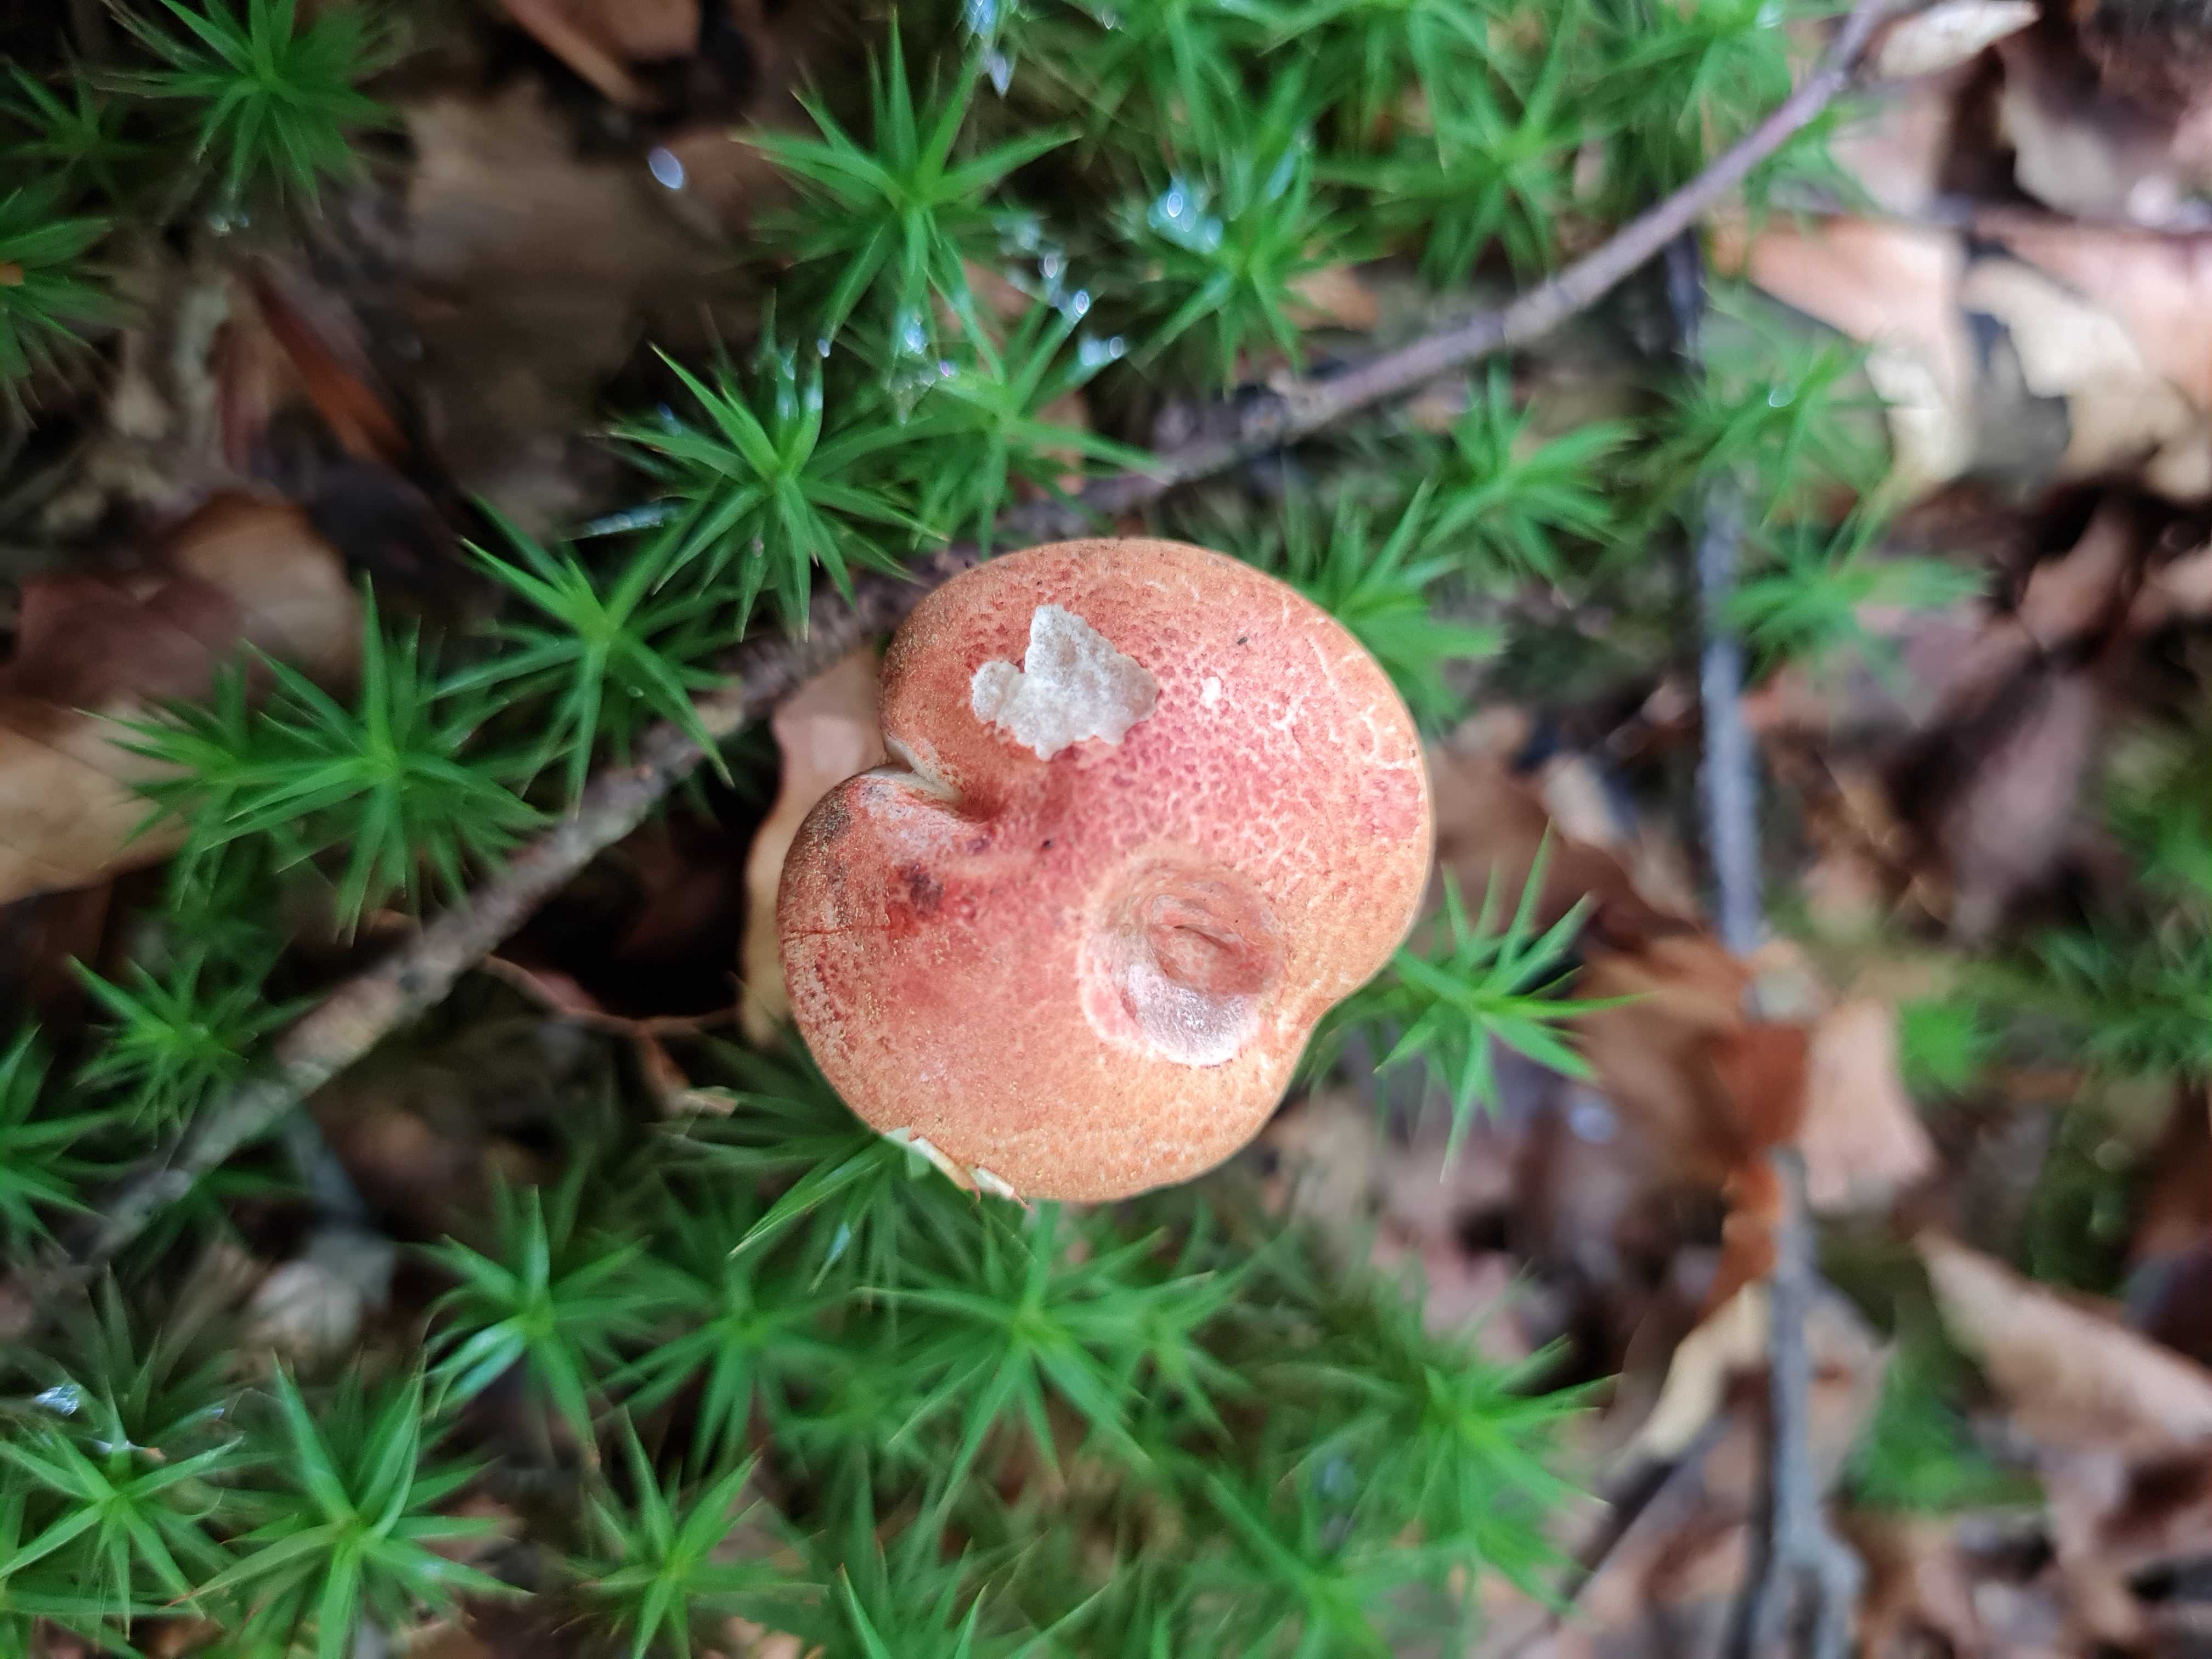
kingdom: Fungi
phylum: Basidiomycota
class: Agaricomycetes
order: Agaricales
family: Cortinariaceae
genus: Cortinarius
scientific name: Cortinarius bolaris
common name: cinnoberskællet slørhat
